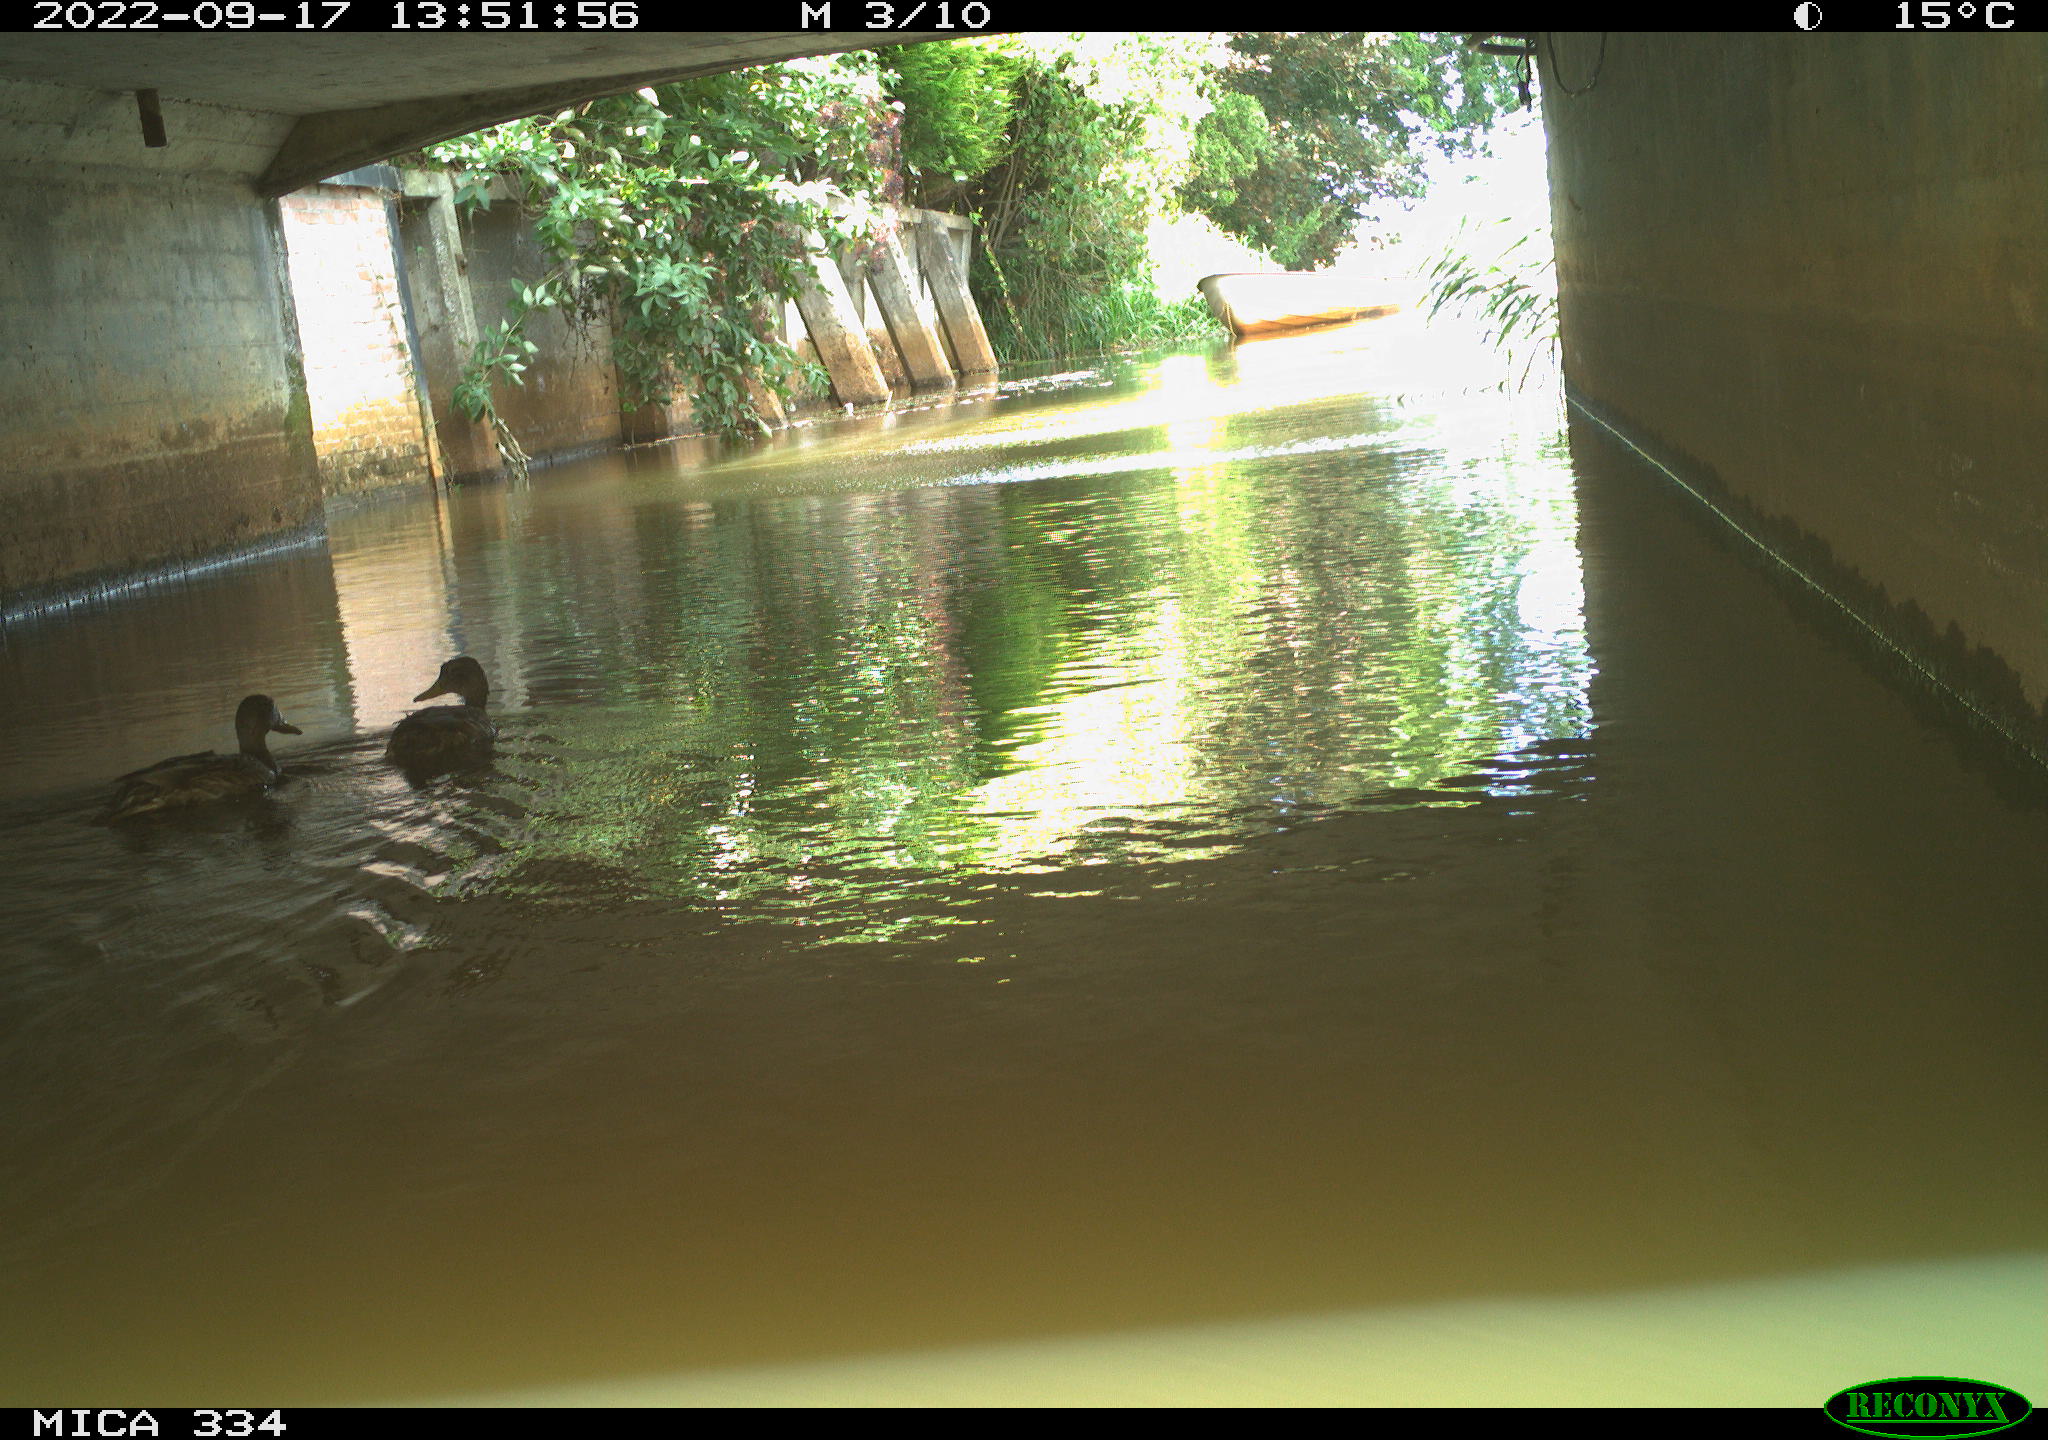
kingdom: Animalia
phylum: Chordata
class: Aves
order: Anseriformes
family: Anatidae
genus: Anas
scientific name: Anas platyrhynchos
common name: Mallard
